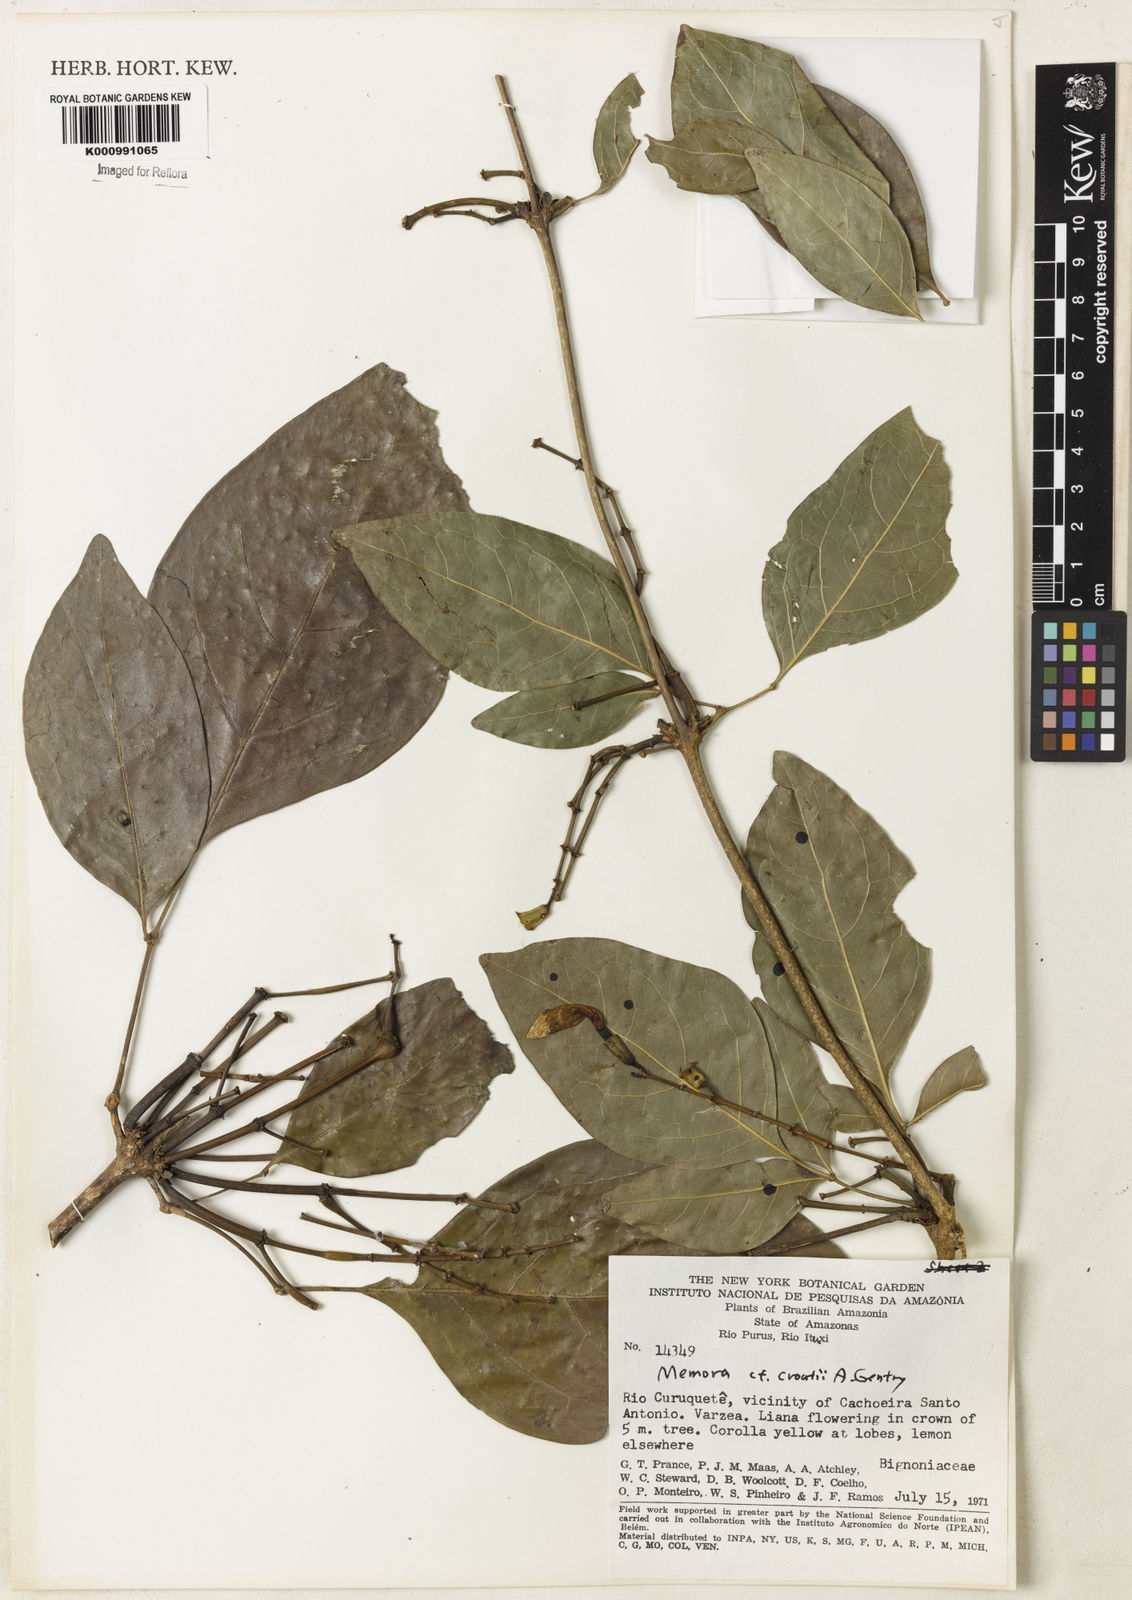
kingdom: Plantae
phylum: Tracheophyta
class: Magnoliopsida
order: Lamiales
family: Bignoniaceae
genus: Adenocalymma
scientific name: Adenocalymma croatii
